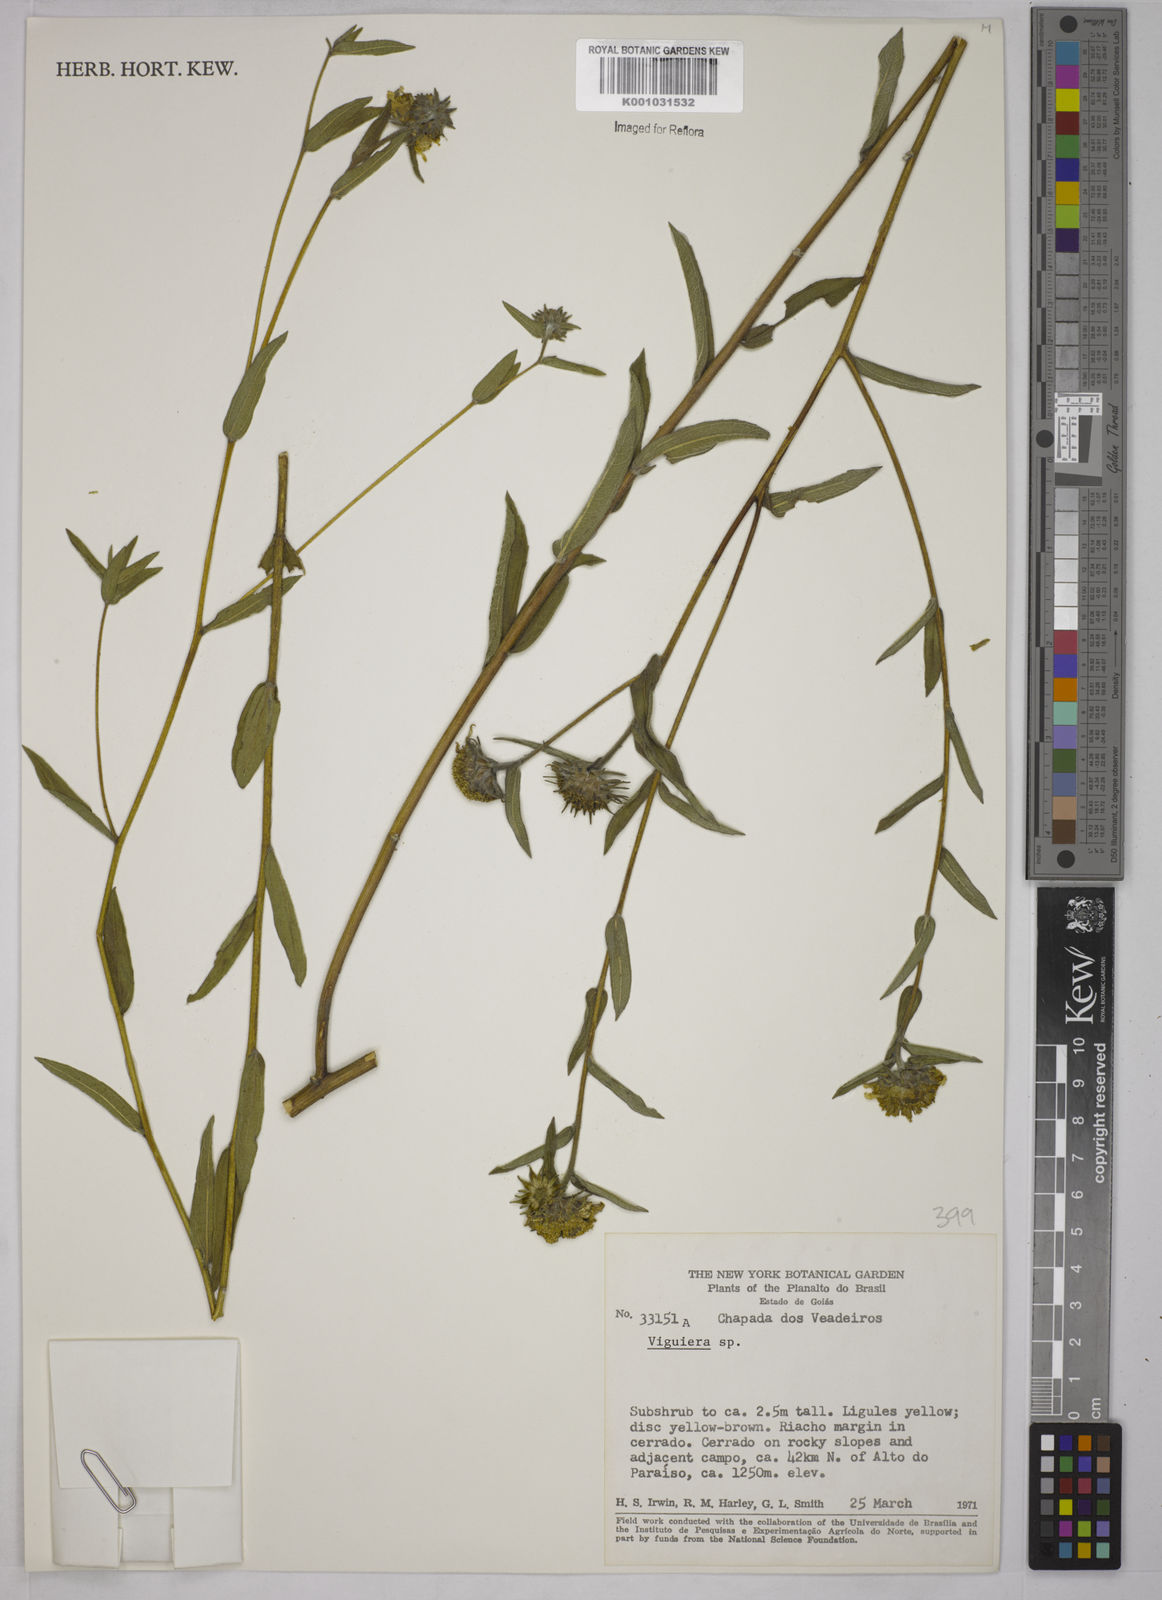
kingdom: Plantae
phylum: Tracheophyta
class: Magnoliopsida
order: Asterales
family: Asteraceae
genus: Viguiera
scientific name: Viguiera
